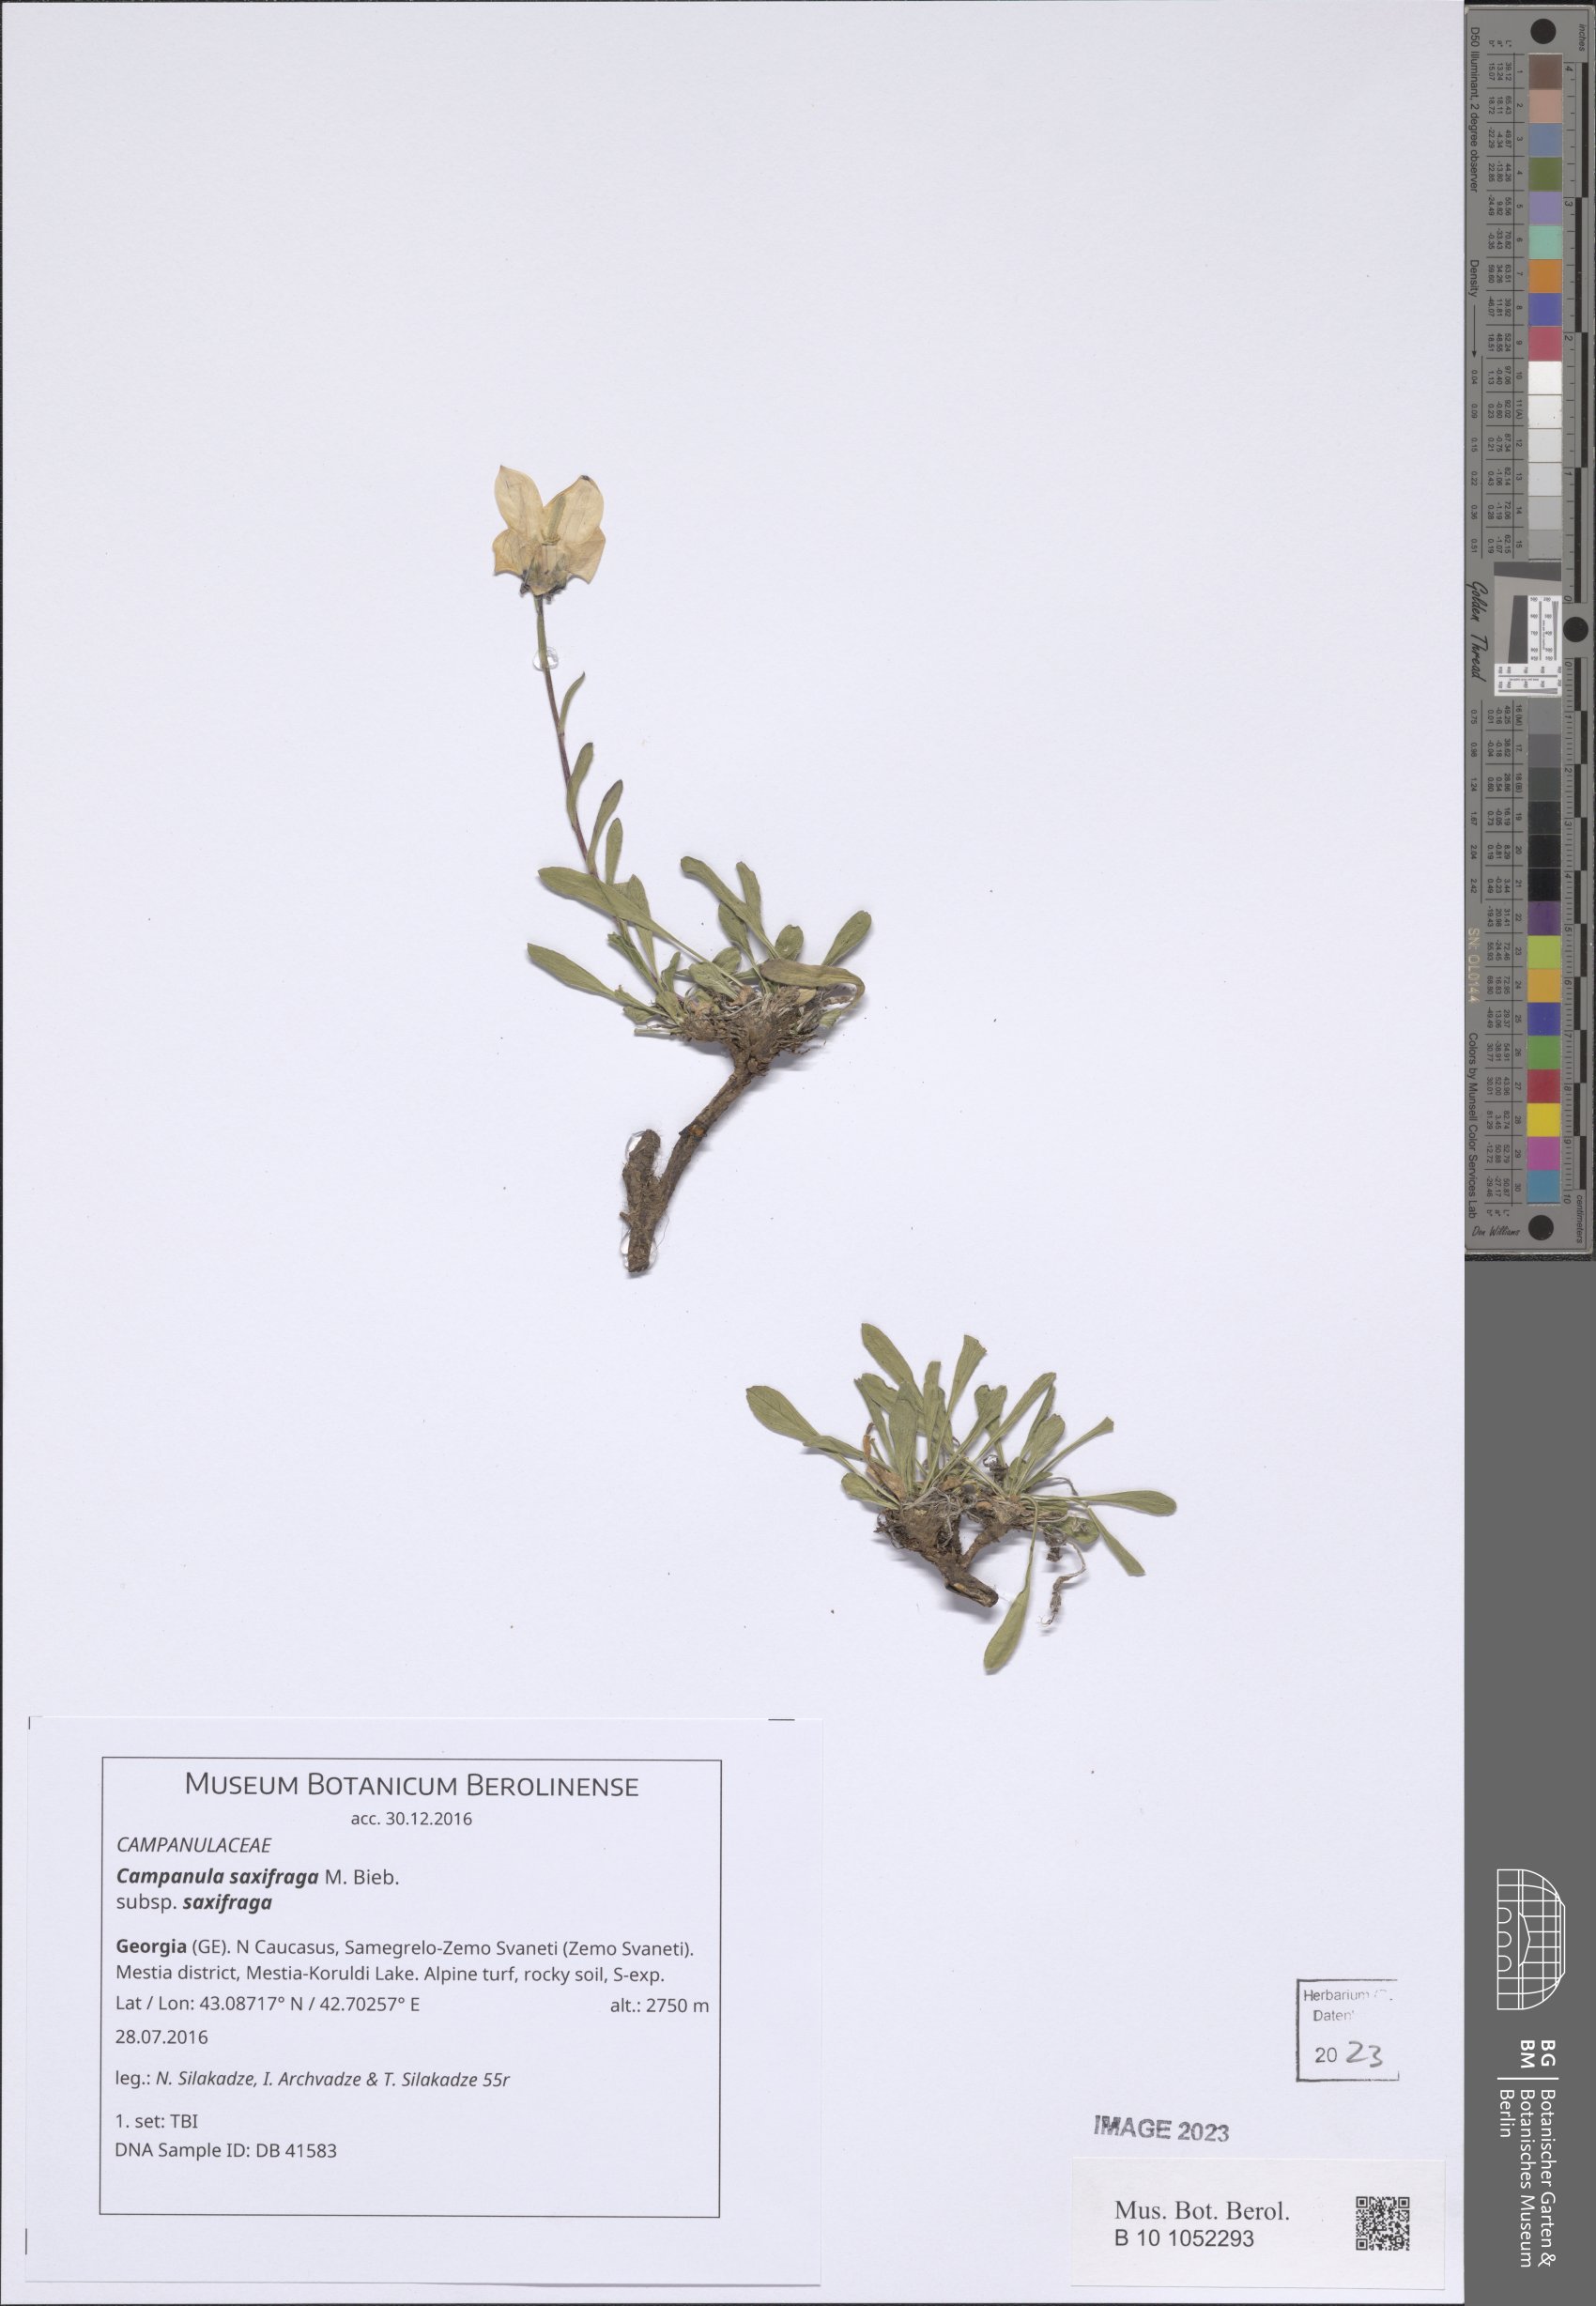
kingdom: Plantae
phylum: Tracheophyta
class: Magnoliopsida
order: Asterales
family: Campanulaceae
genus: Campanula
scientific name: Campanula saxifraga
